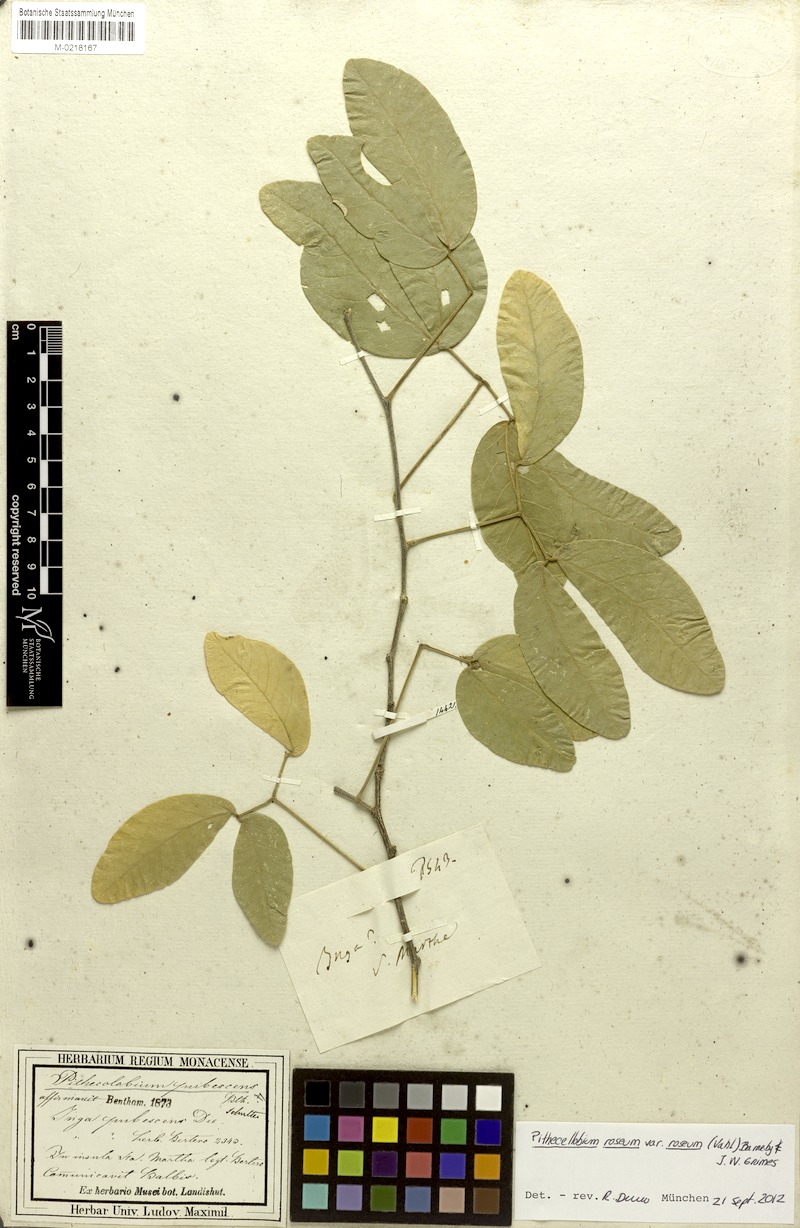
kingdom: Plantae
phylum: Tracheophyta
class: Magnoliopsida
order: Fabales
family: Fabaceae
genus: Pithecellobium
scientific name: Pithecellobium roseum
